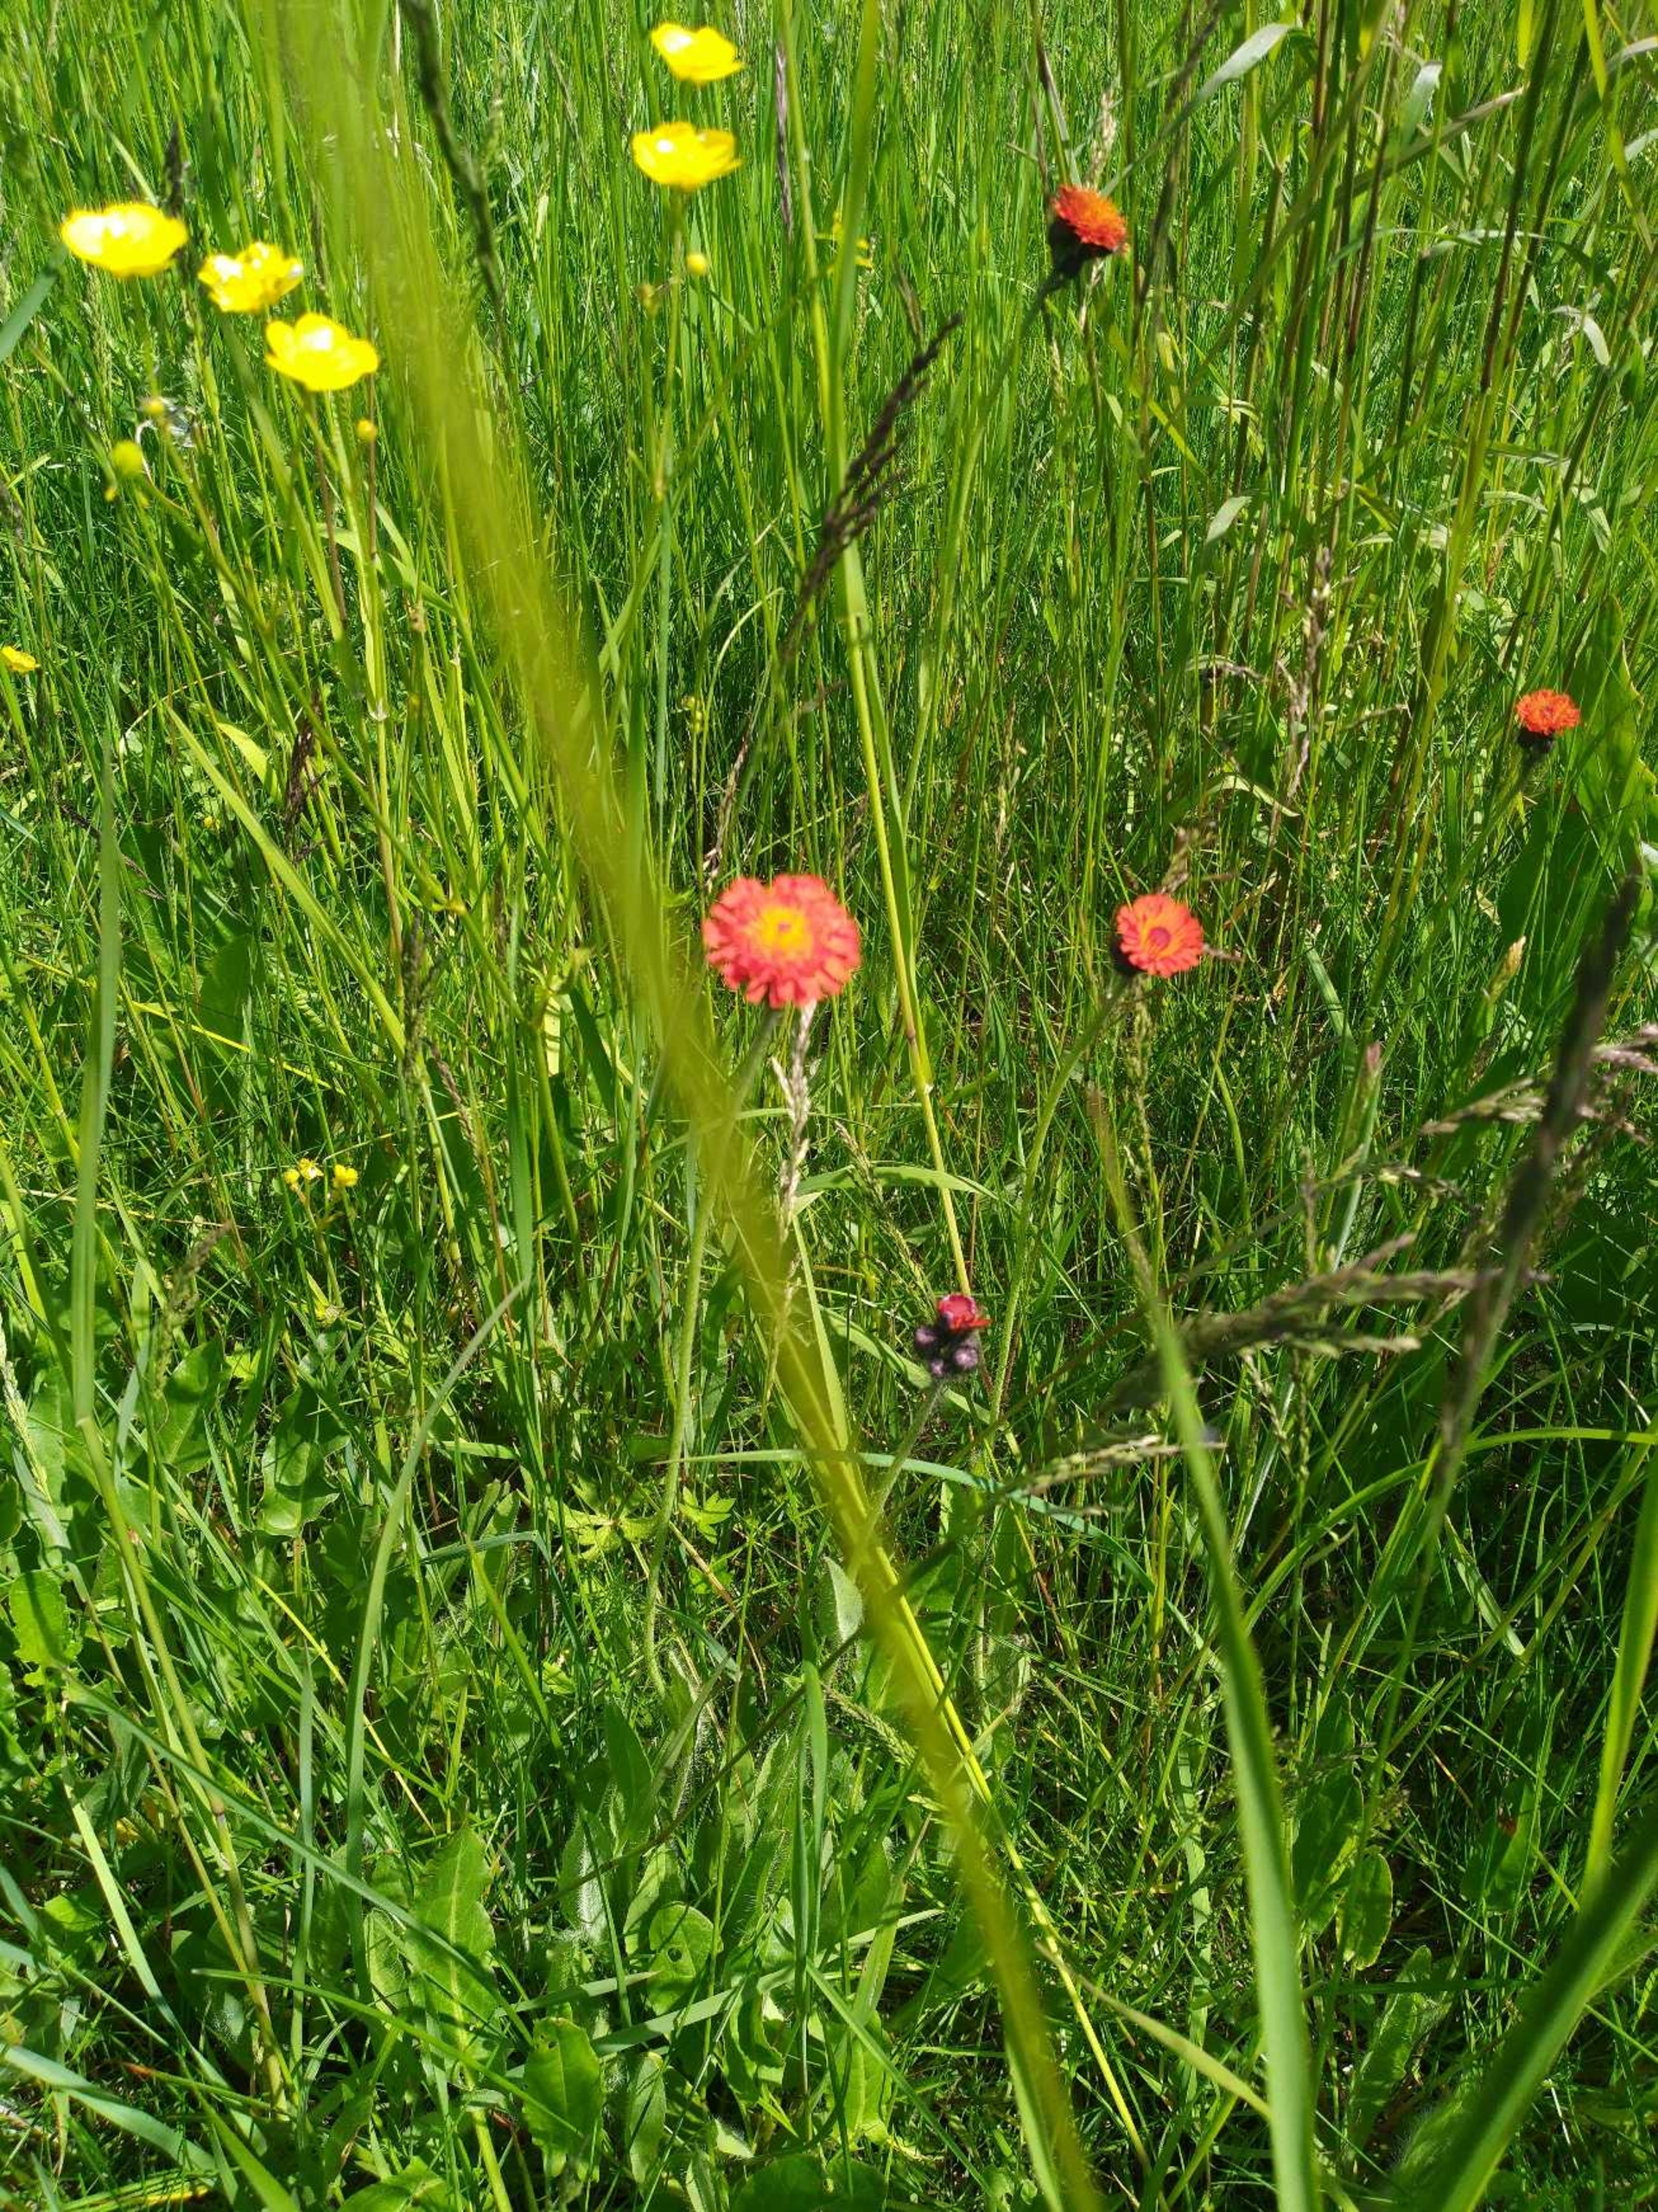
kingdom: Plantae
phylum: Tracheophyta
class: Magnoliopsida
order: Asterales
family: Asteraceae
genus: Pilosella
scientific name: Pilosella aurantiaca
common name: Pomerans-høgeurt
